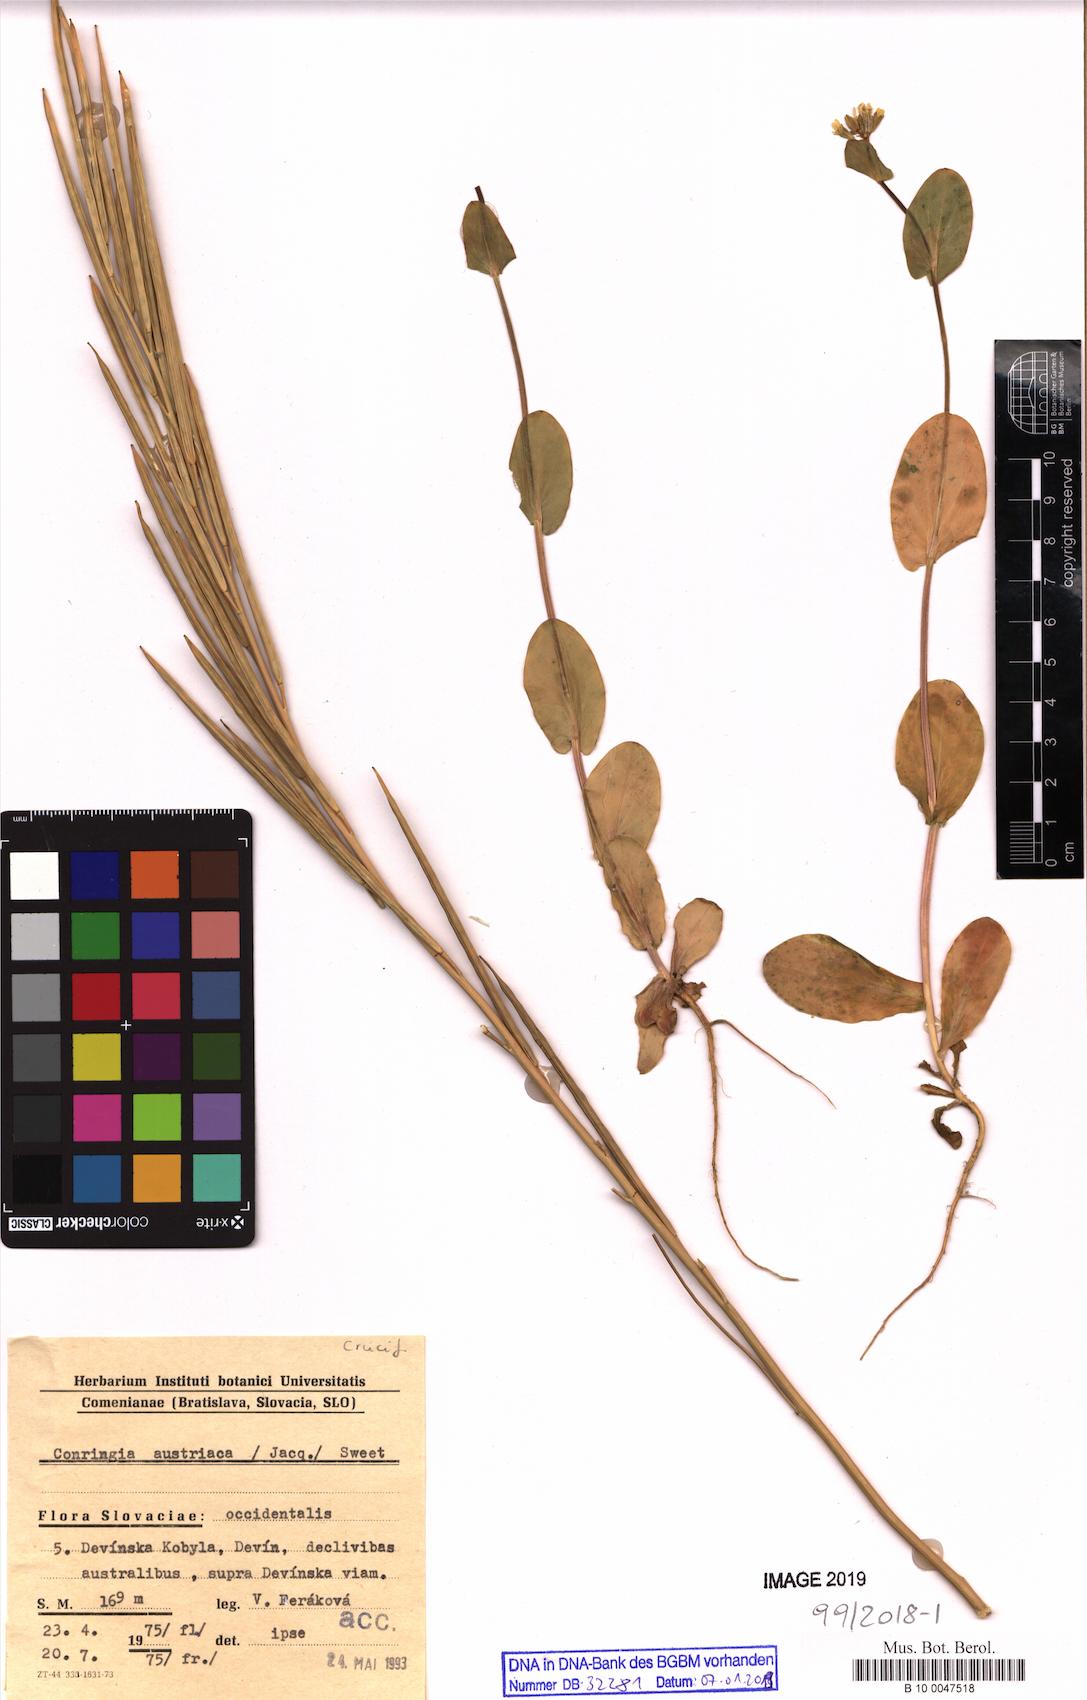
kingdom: Plantae
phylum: Tracheophyta
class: Magnoliopsida
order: Brassicales
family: Brassicaceae
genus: Conringia
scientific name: Conringia austriaca
